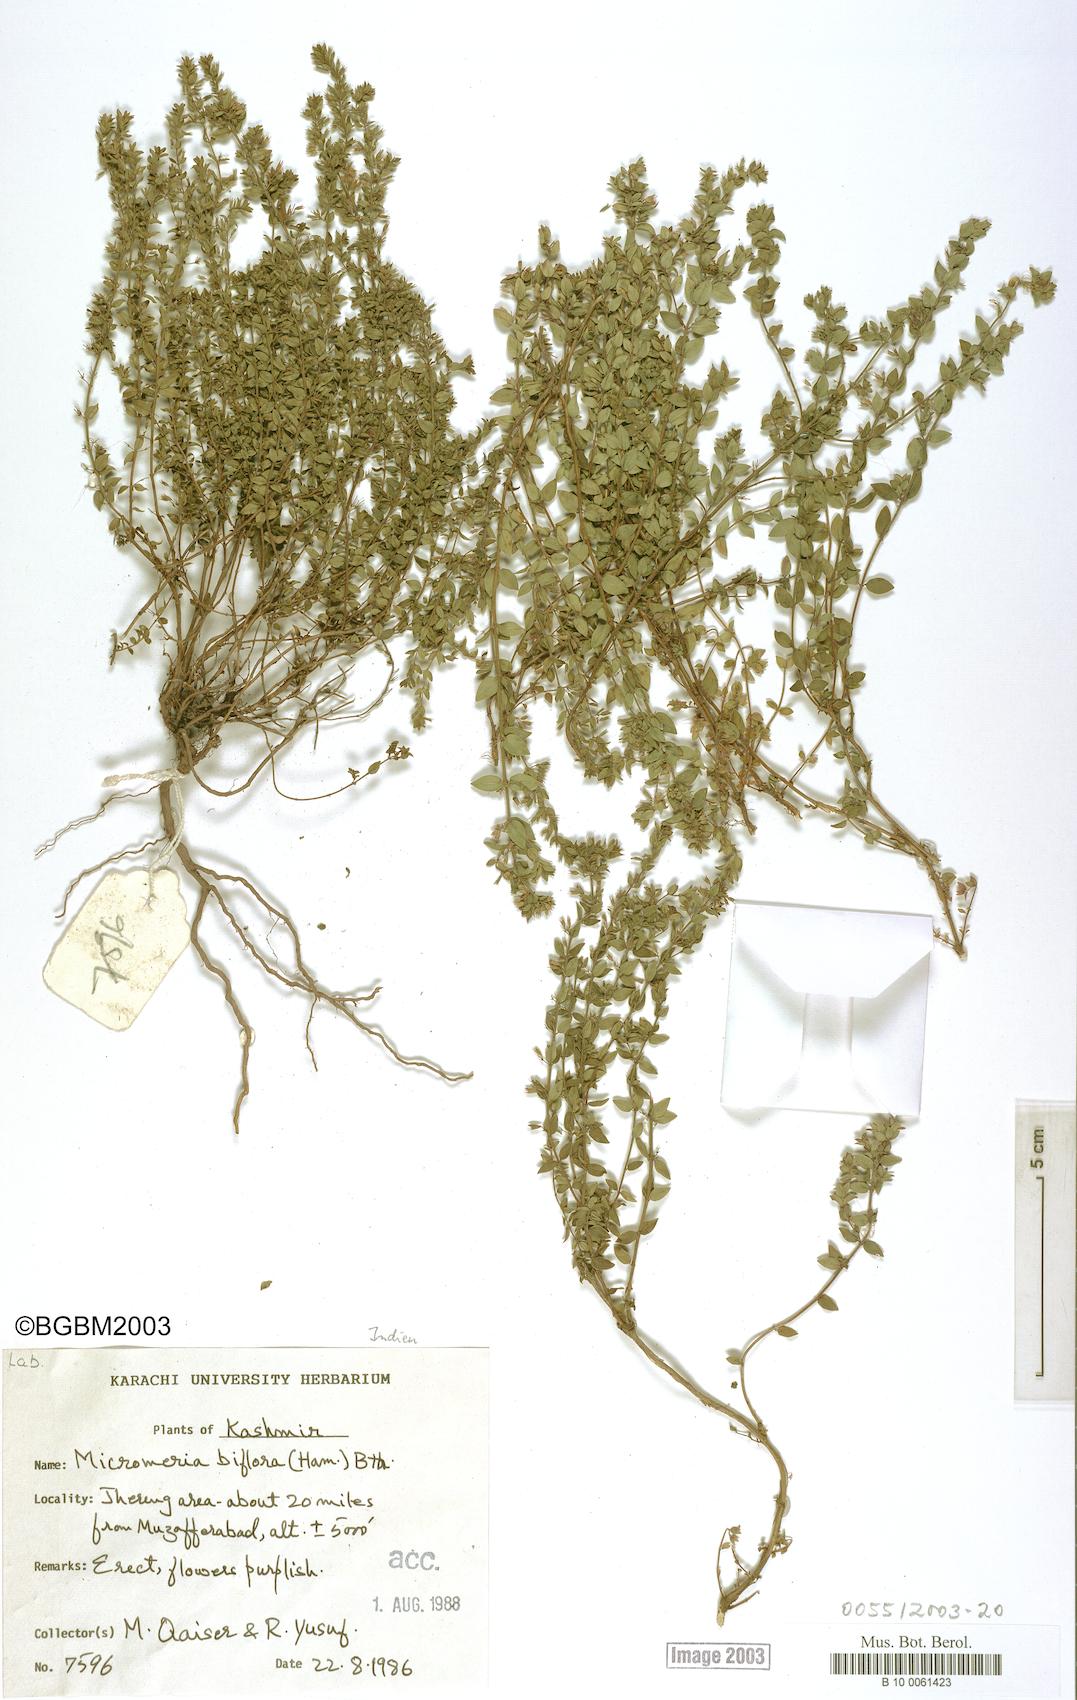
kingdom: Plantae
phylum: Tracheophyta
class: Magnoliopsida
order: Lamiales
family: Lamiaceae
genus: Micromeria
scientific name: Micromeria biflora
